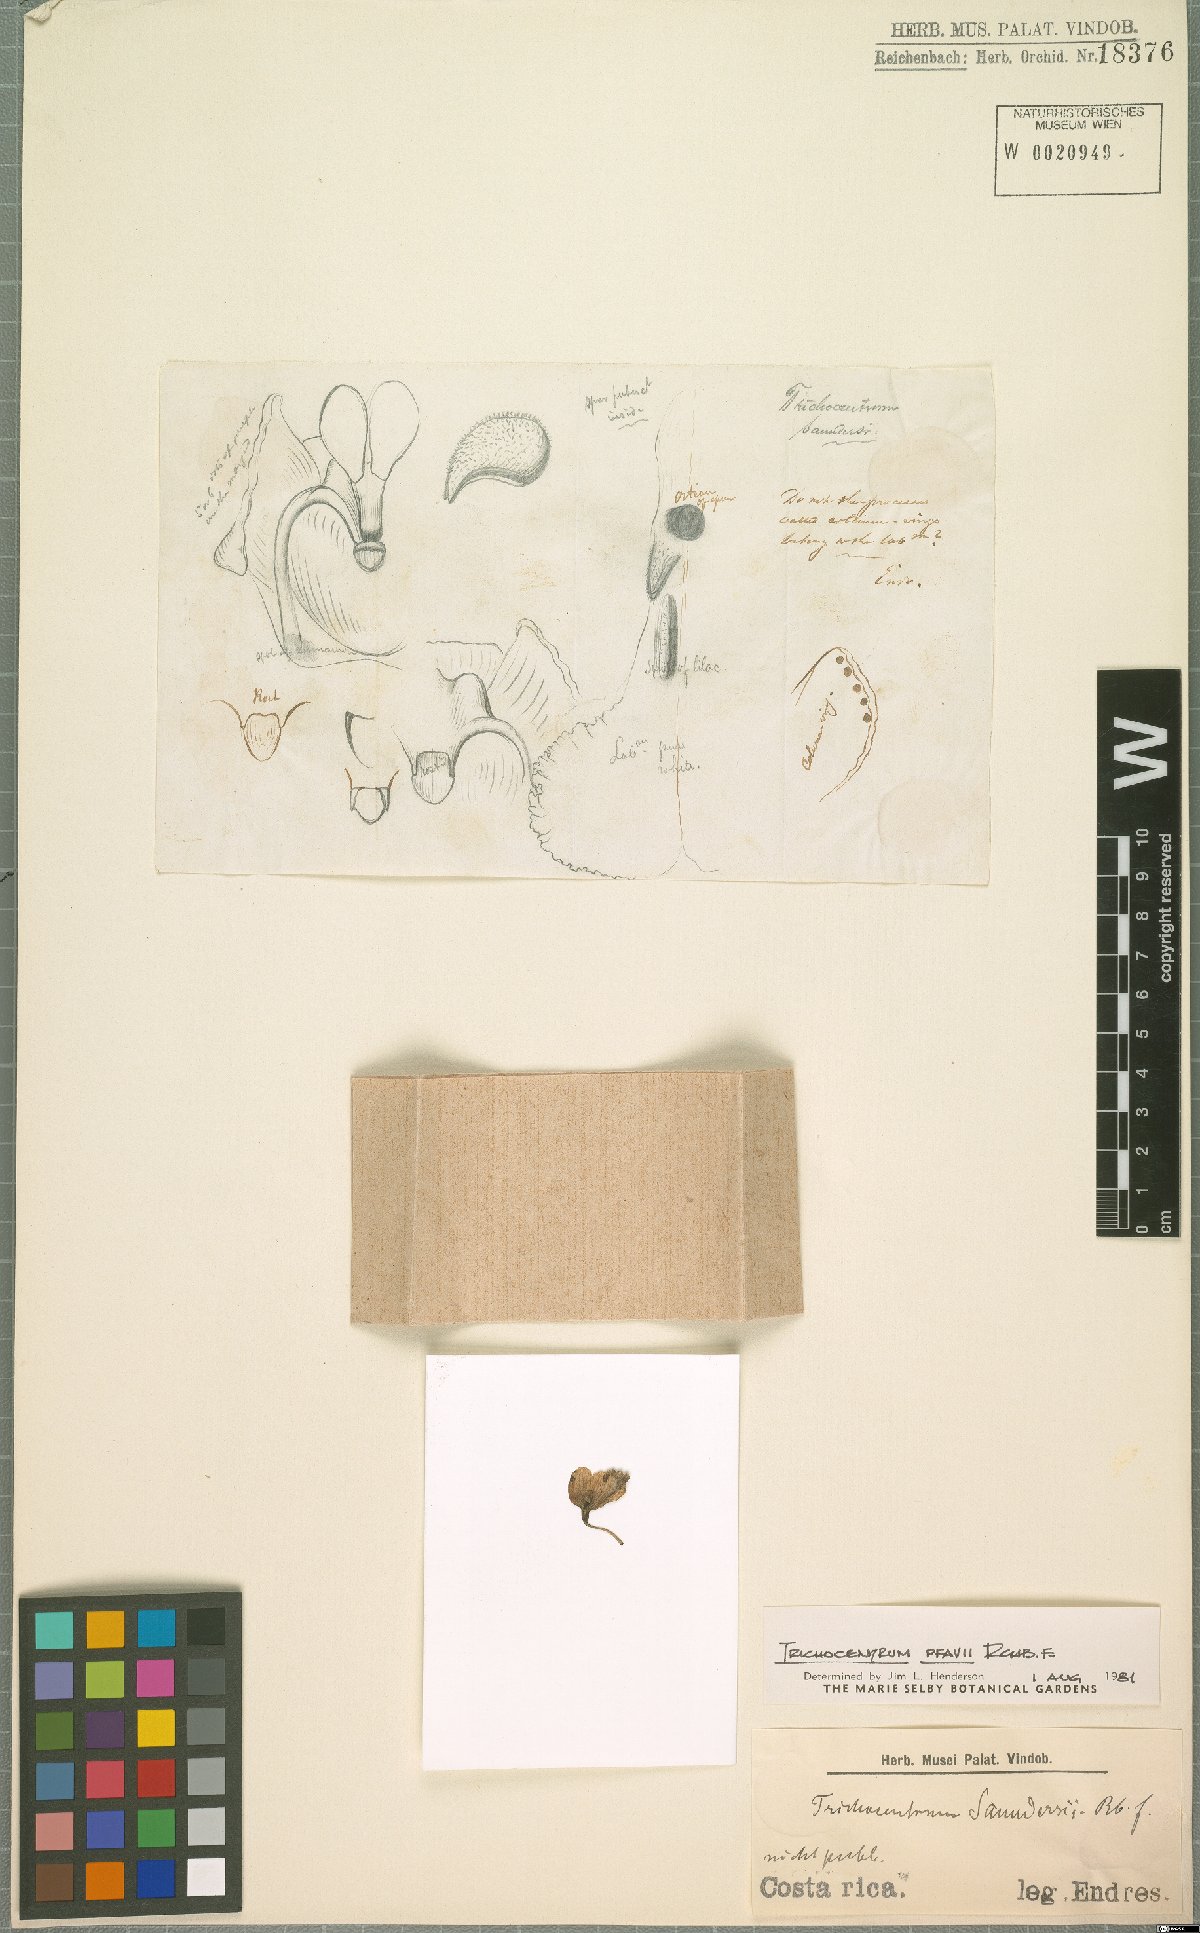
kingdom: Plantae
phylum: Tracheophyta
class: Liliopsida
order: Asparagales
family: Orchidaceae
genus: Trichocentrum
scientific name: Trichocentrum pfavii
